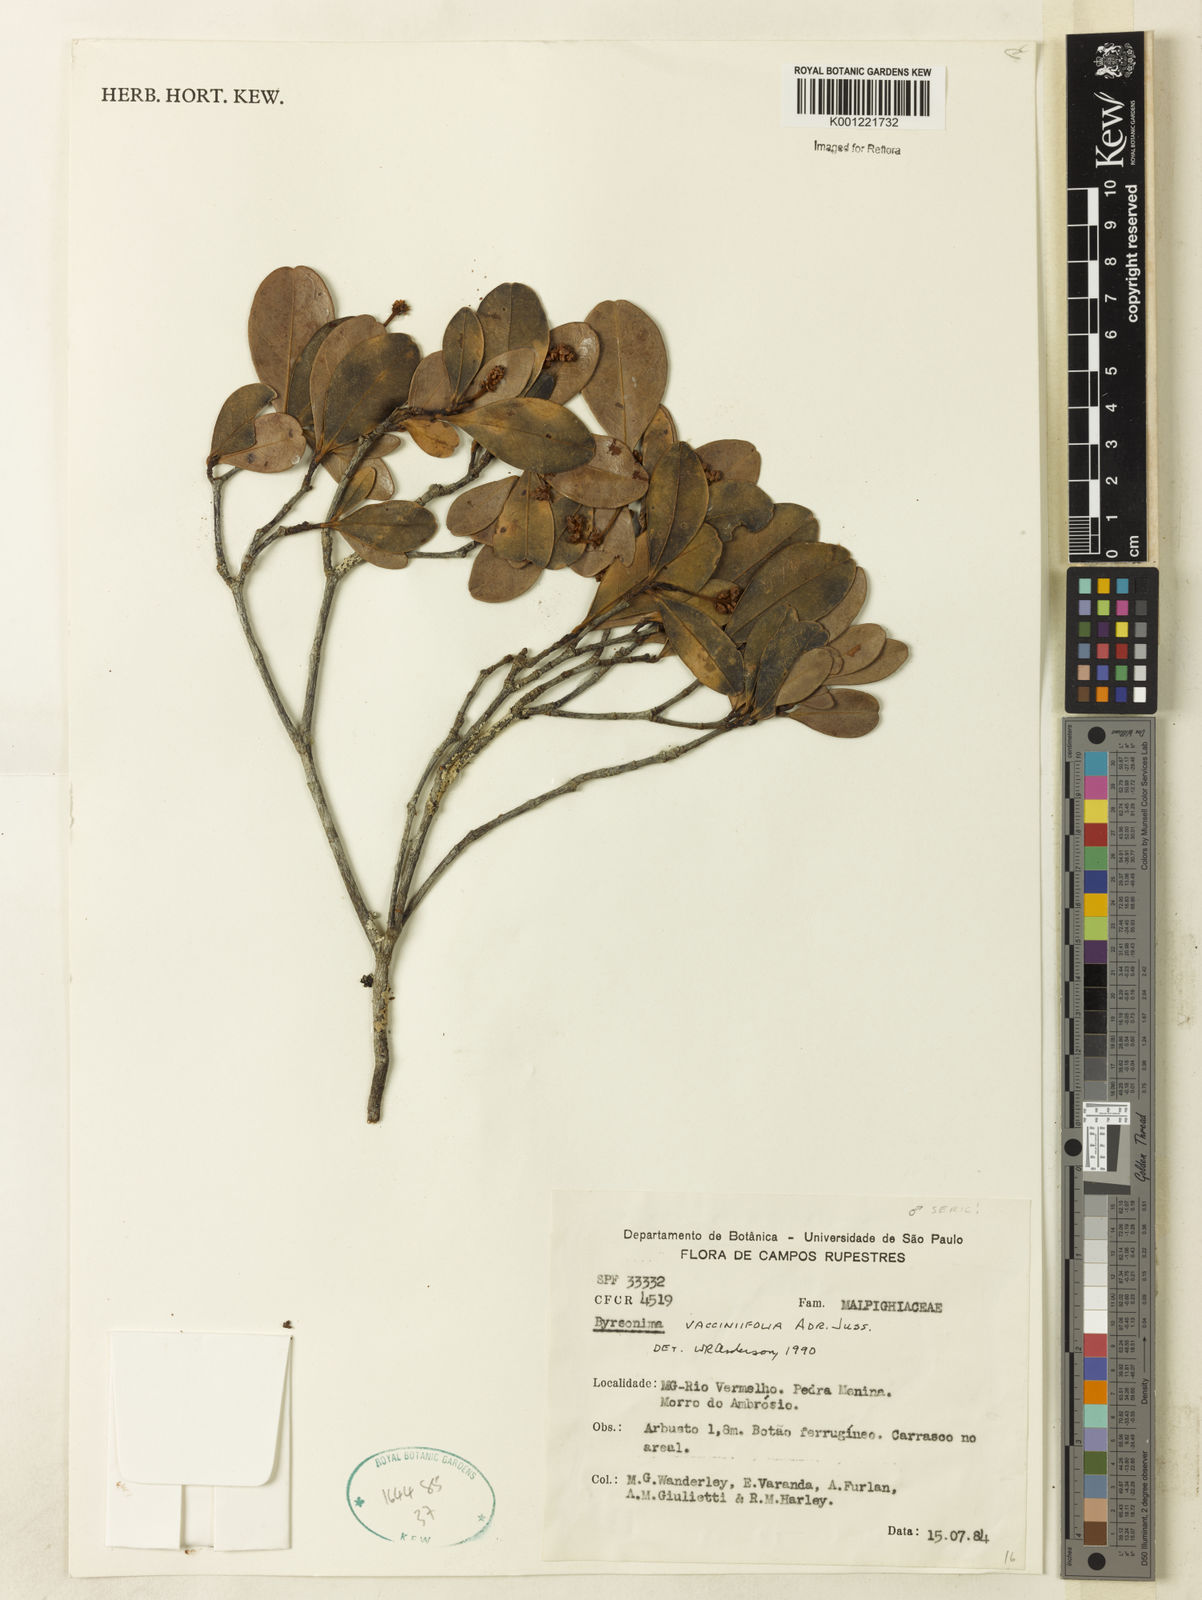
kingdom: Plantae
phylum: Tracheophyta
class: Magnoliopsida
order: Malpighiales
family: Malpighiaceae
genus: Byrsonima
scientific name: Byrsonima vacciniifolia
